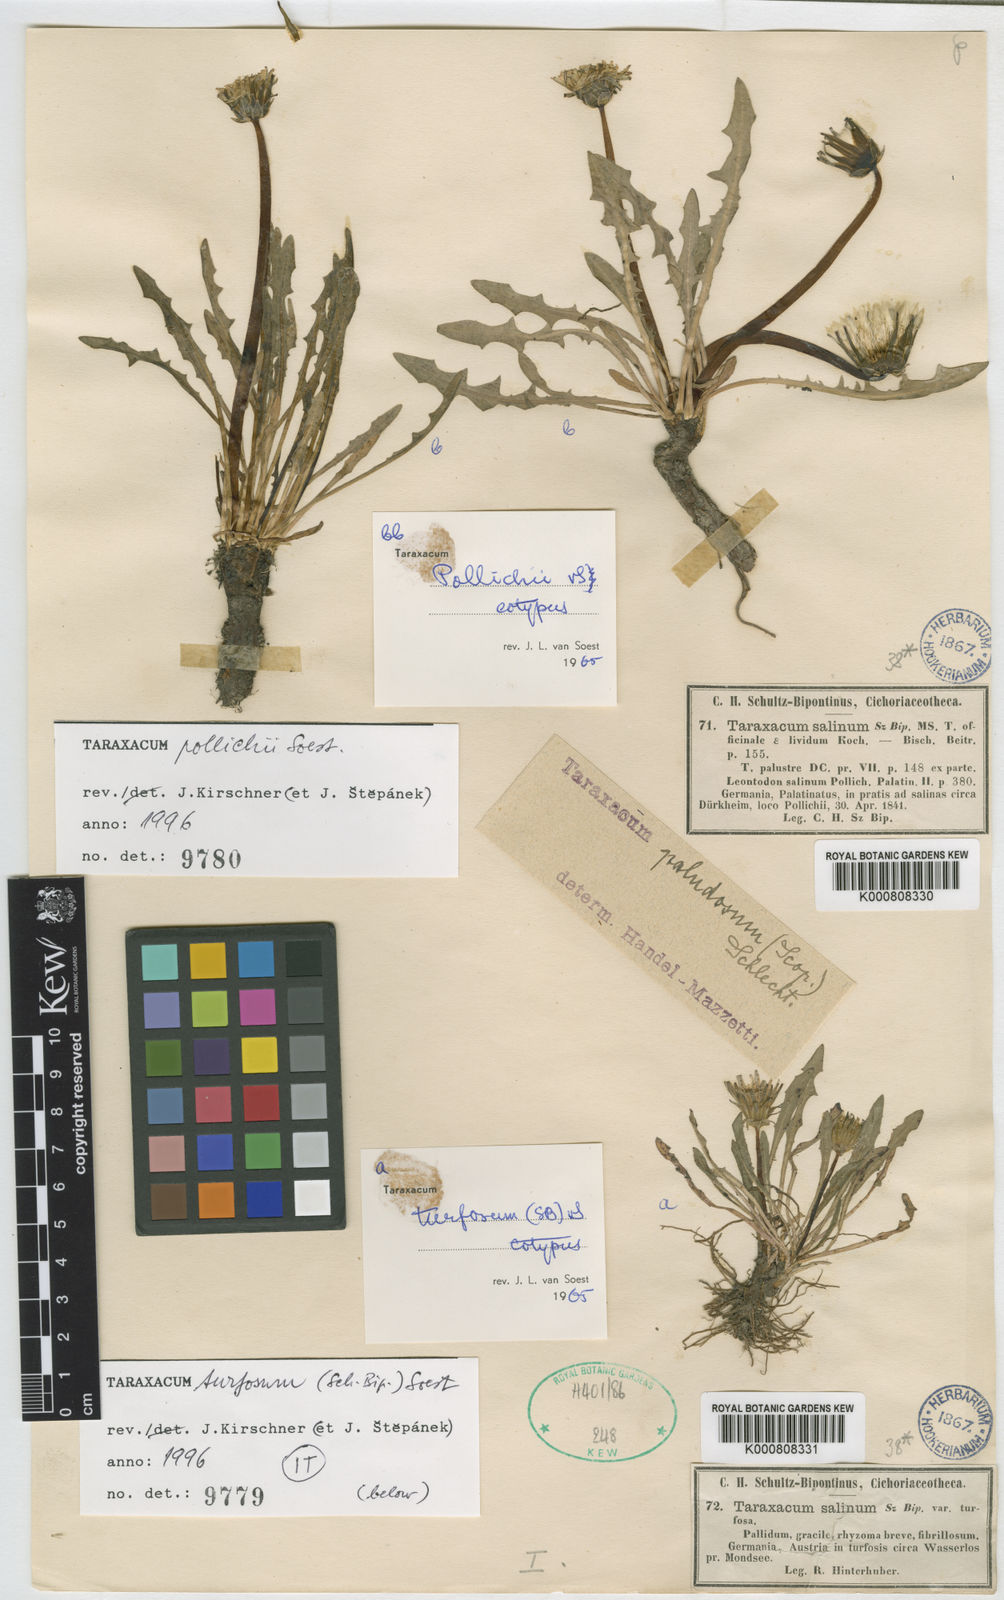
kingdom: Plantae
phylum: Tracheophyta
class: Magnoliopsida
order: Asterales
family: Asteraceae
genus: Taraxacum
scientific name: Taraxacum turfosum
